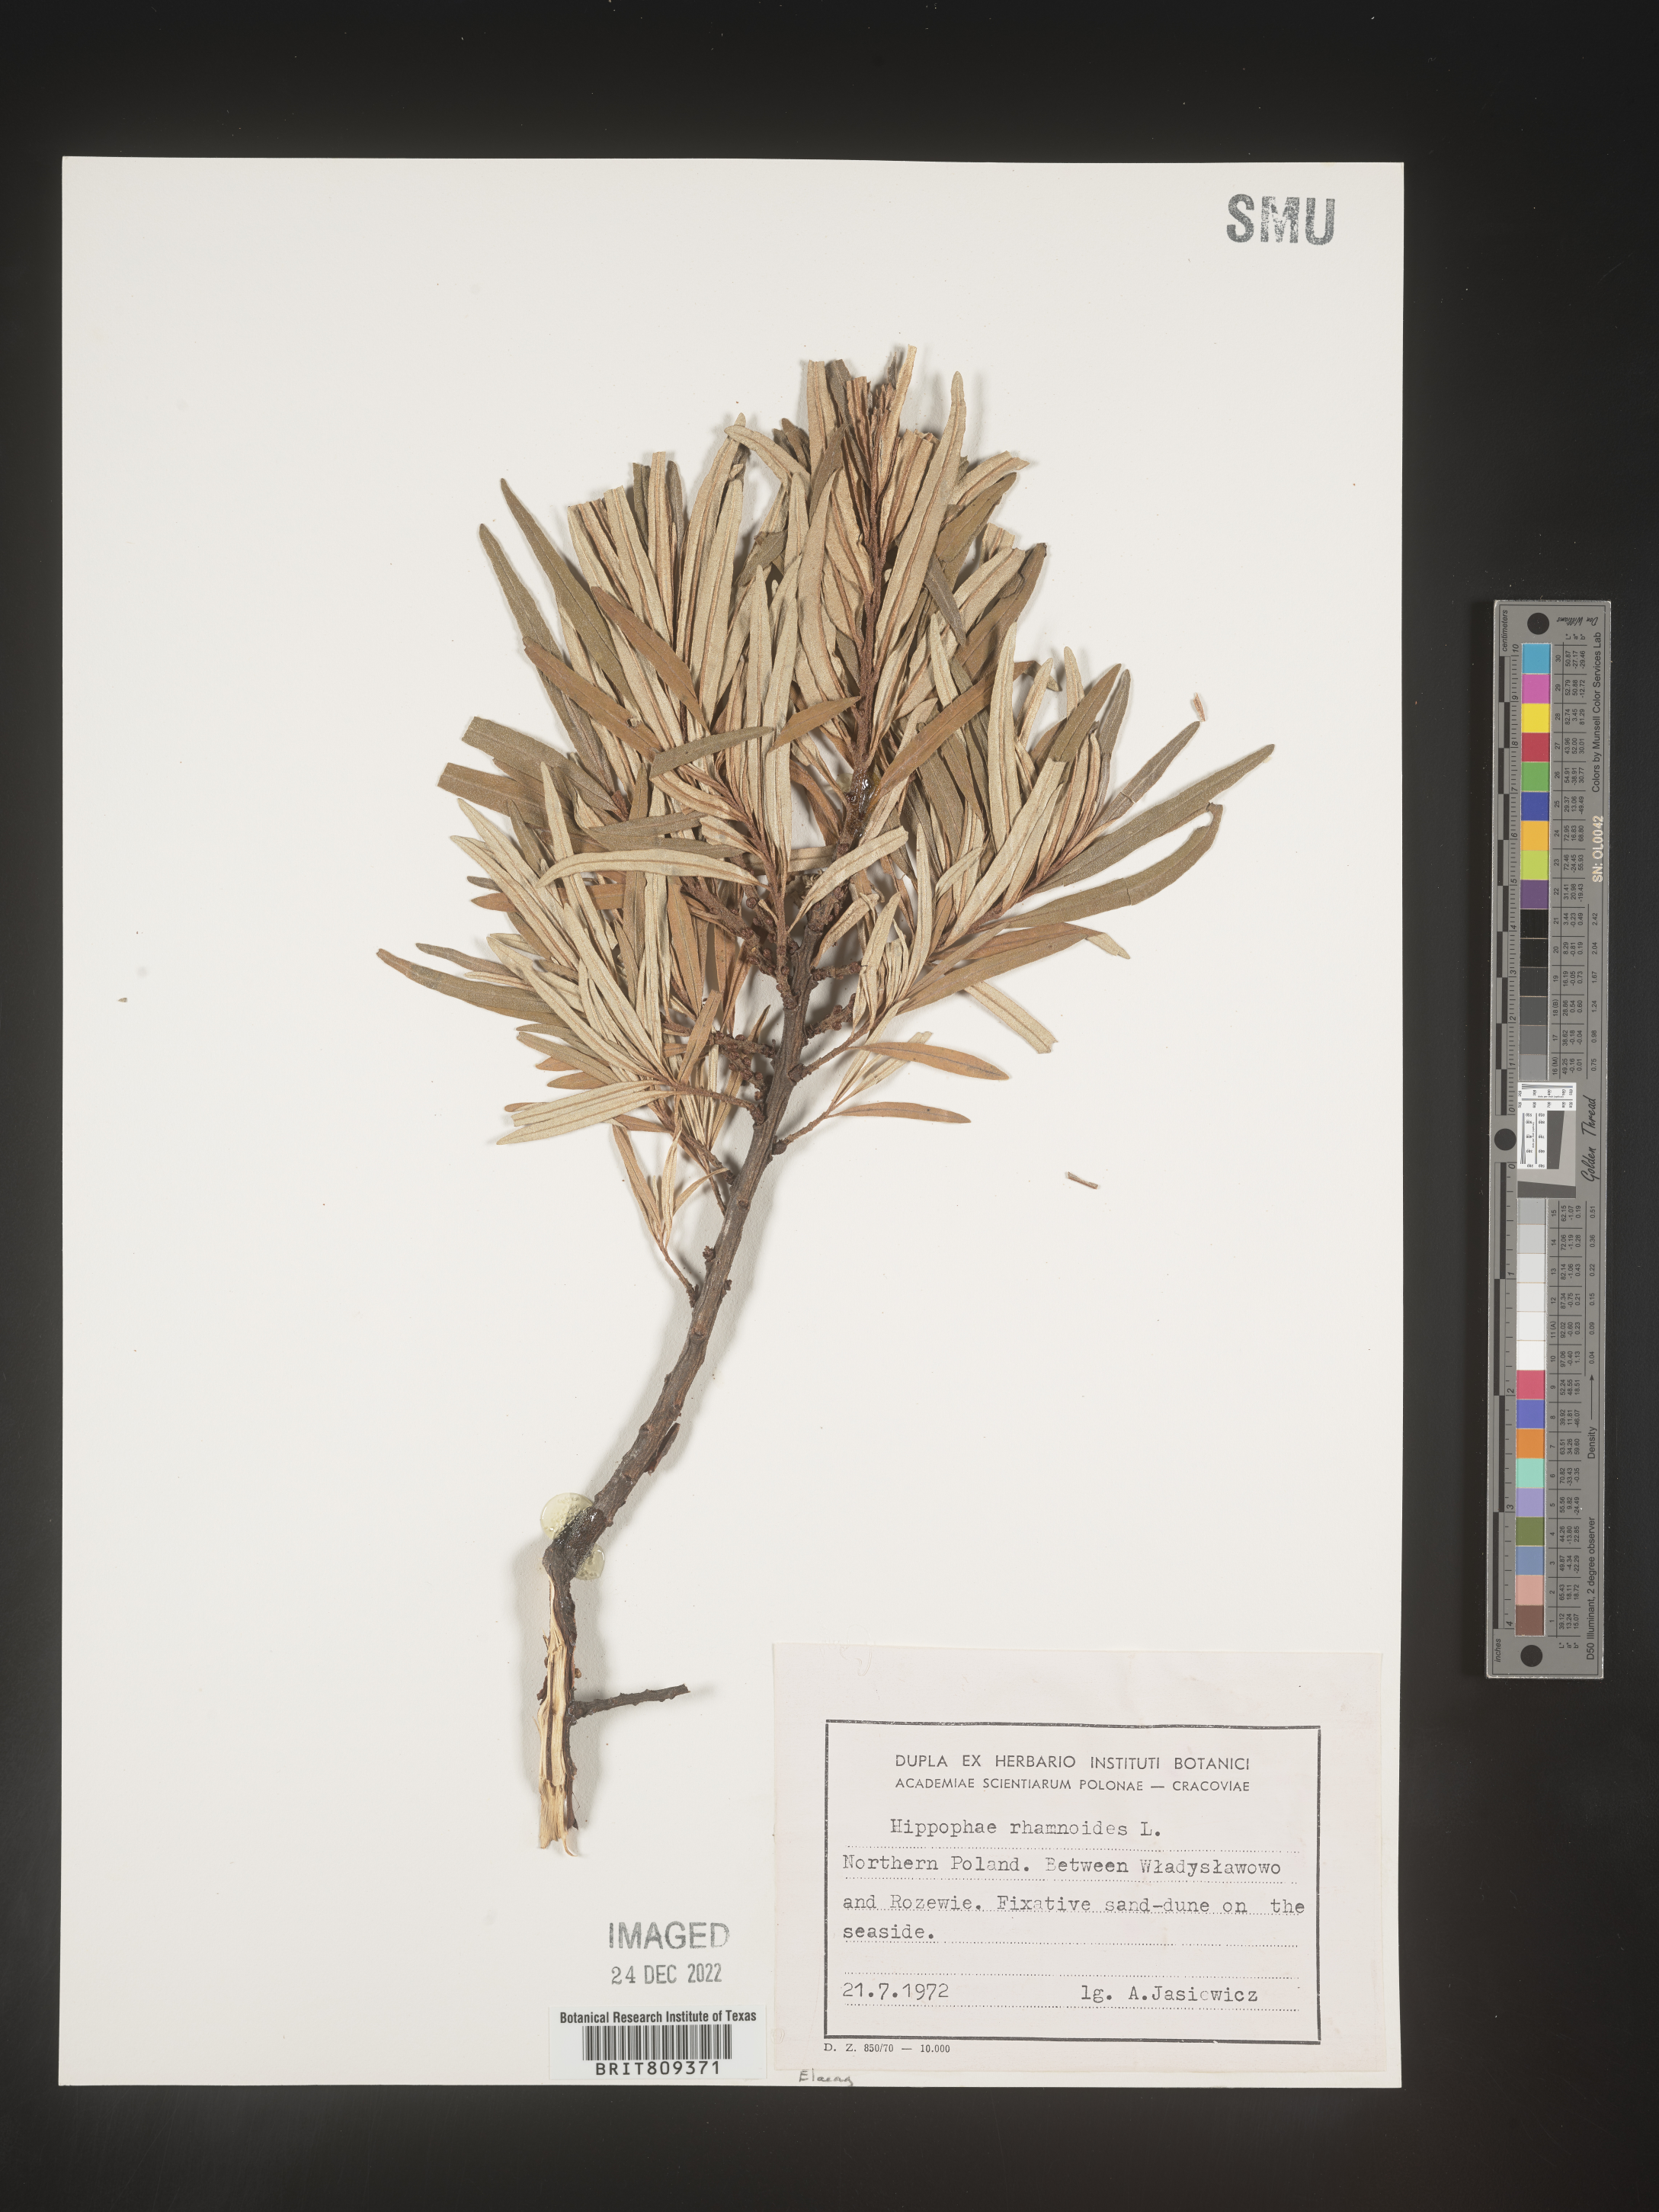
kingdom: Plantae
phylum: Tracheophyta
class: Magnoliopsida
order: Rosales
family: Elaeagnaceae
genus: Hippophae
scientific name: Hippophae
